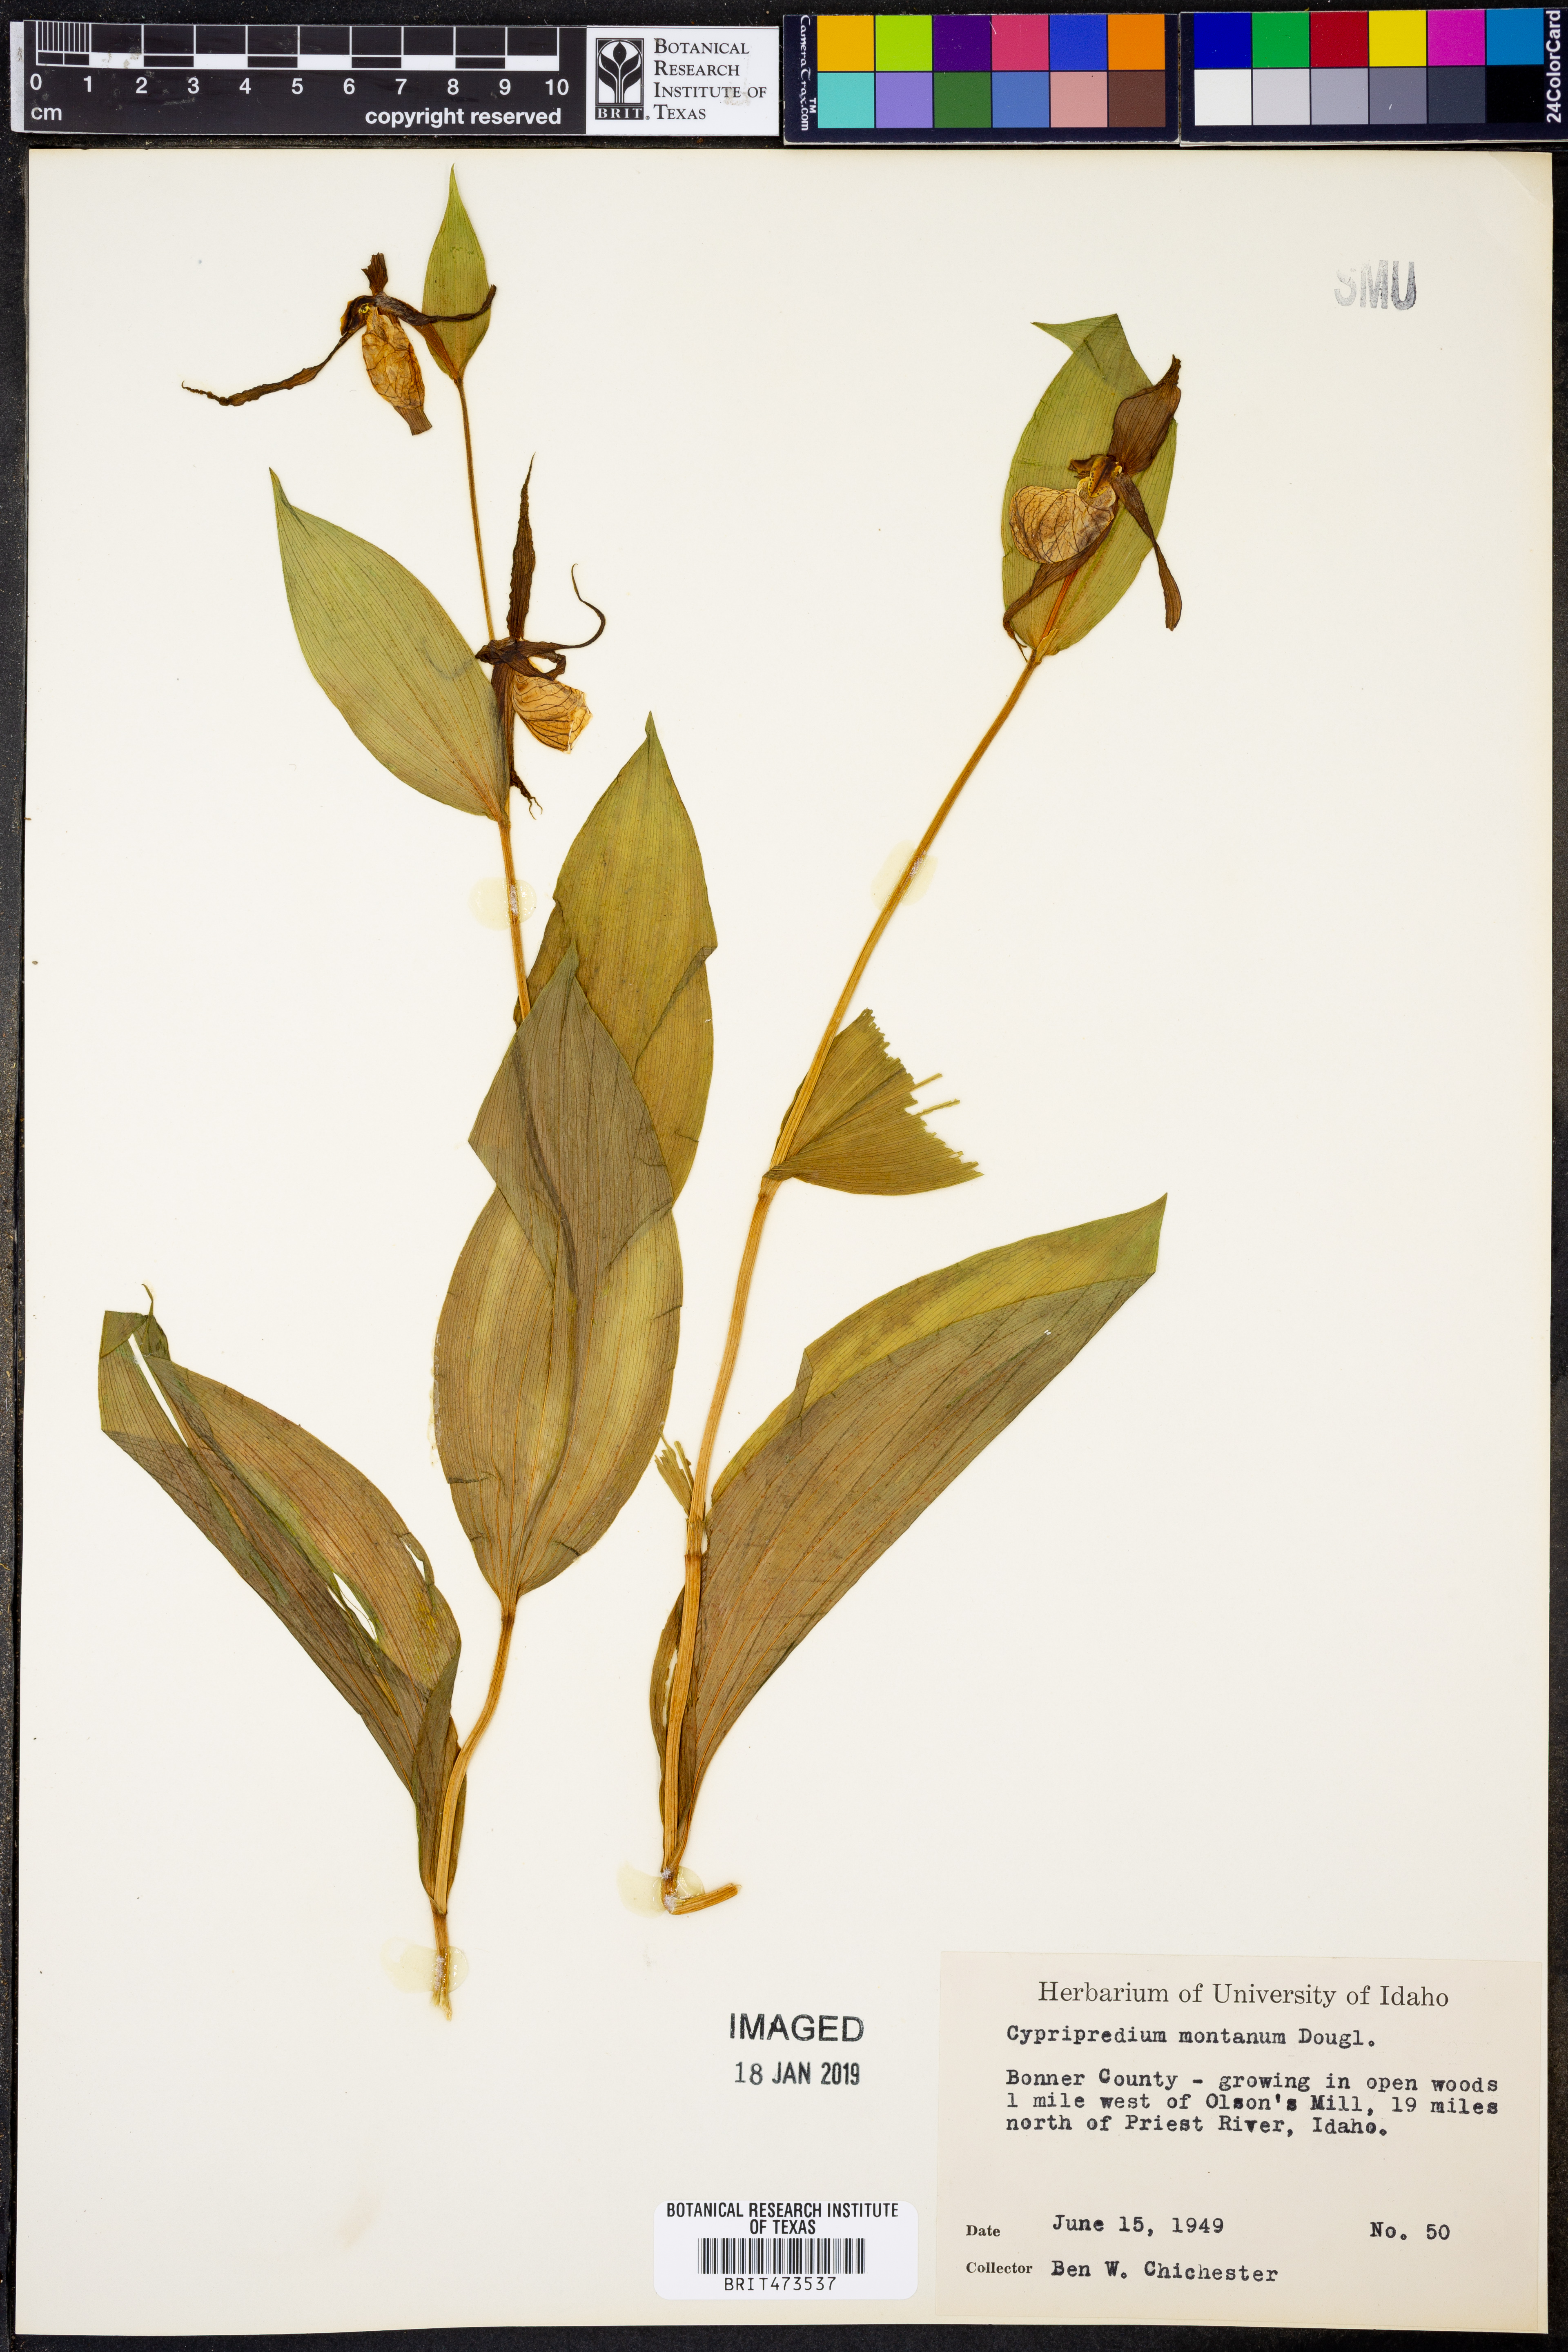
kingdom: Plantae
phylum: Tracheophyta
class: Liliopsida
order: Asparagales
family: Orchidaceae
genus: Cypripedium
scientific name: Cypripedium montanum
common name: Mountain lady's-slipper
